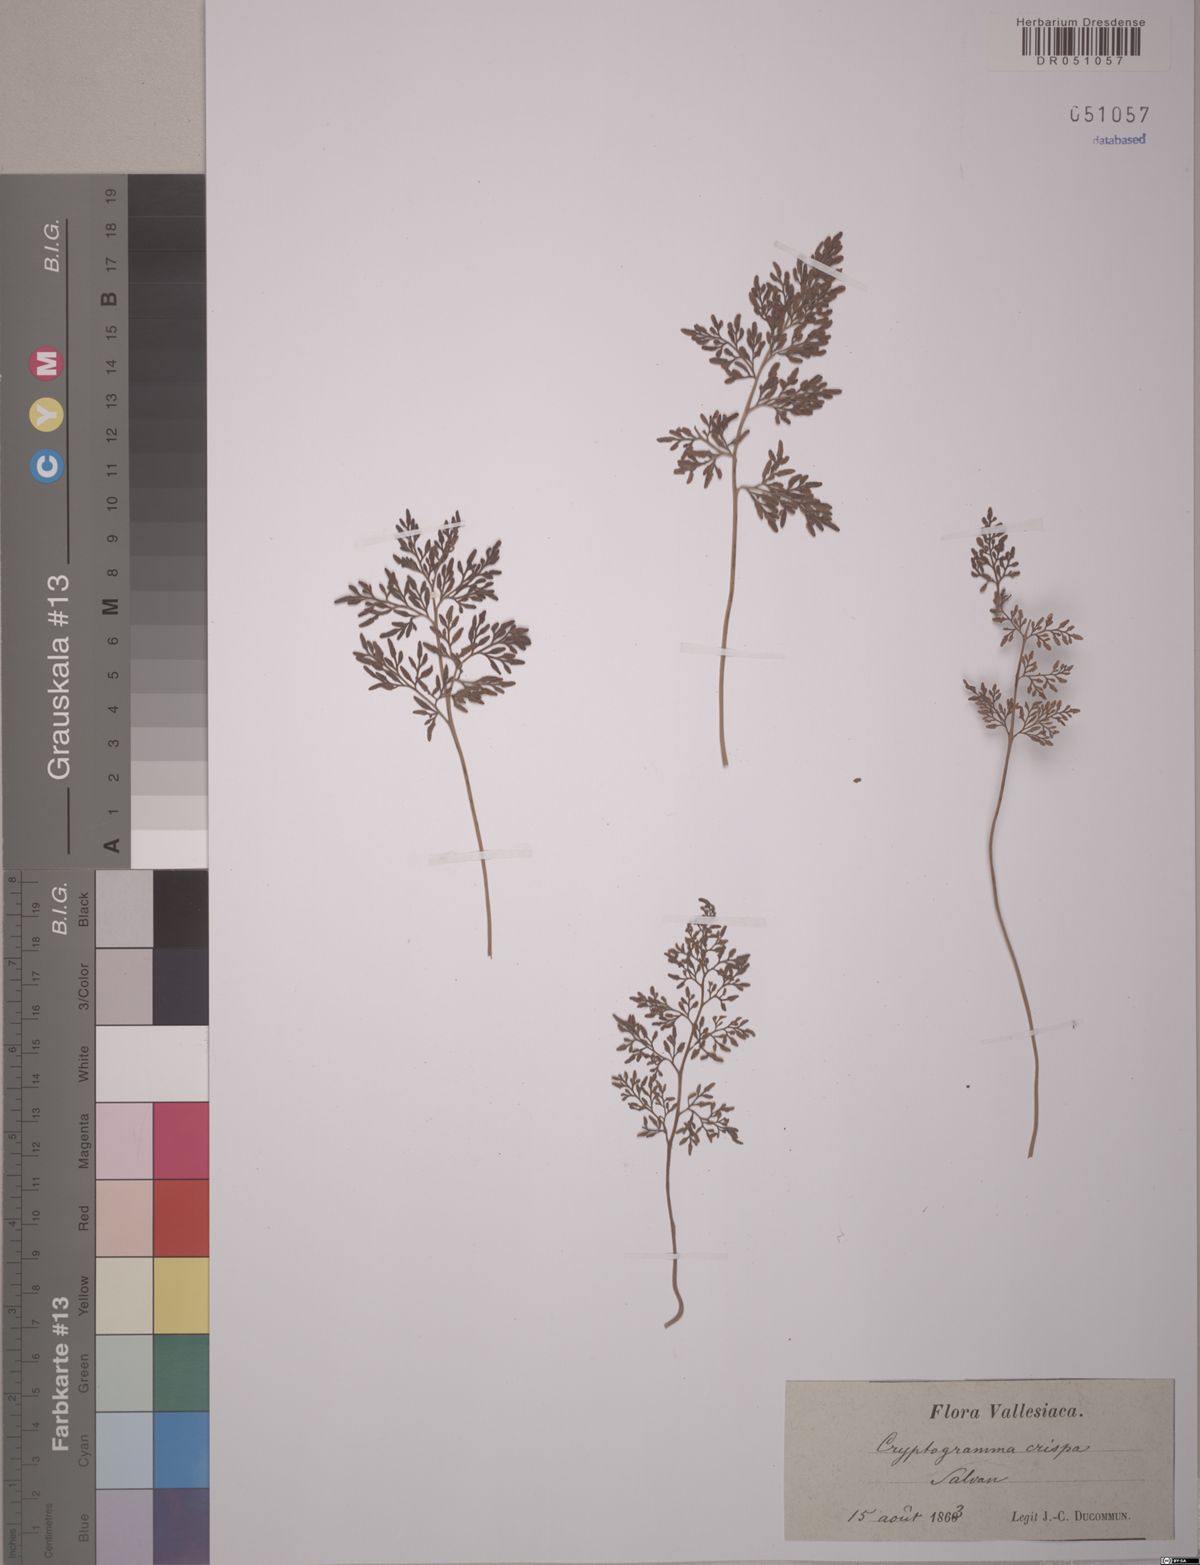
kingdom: Plantae
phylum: Tracheophyta
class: Polypodiopsida
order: Polypodiales
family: Pteridaceae
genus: Cryptogramma
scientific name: Cryptogramma crispa
